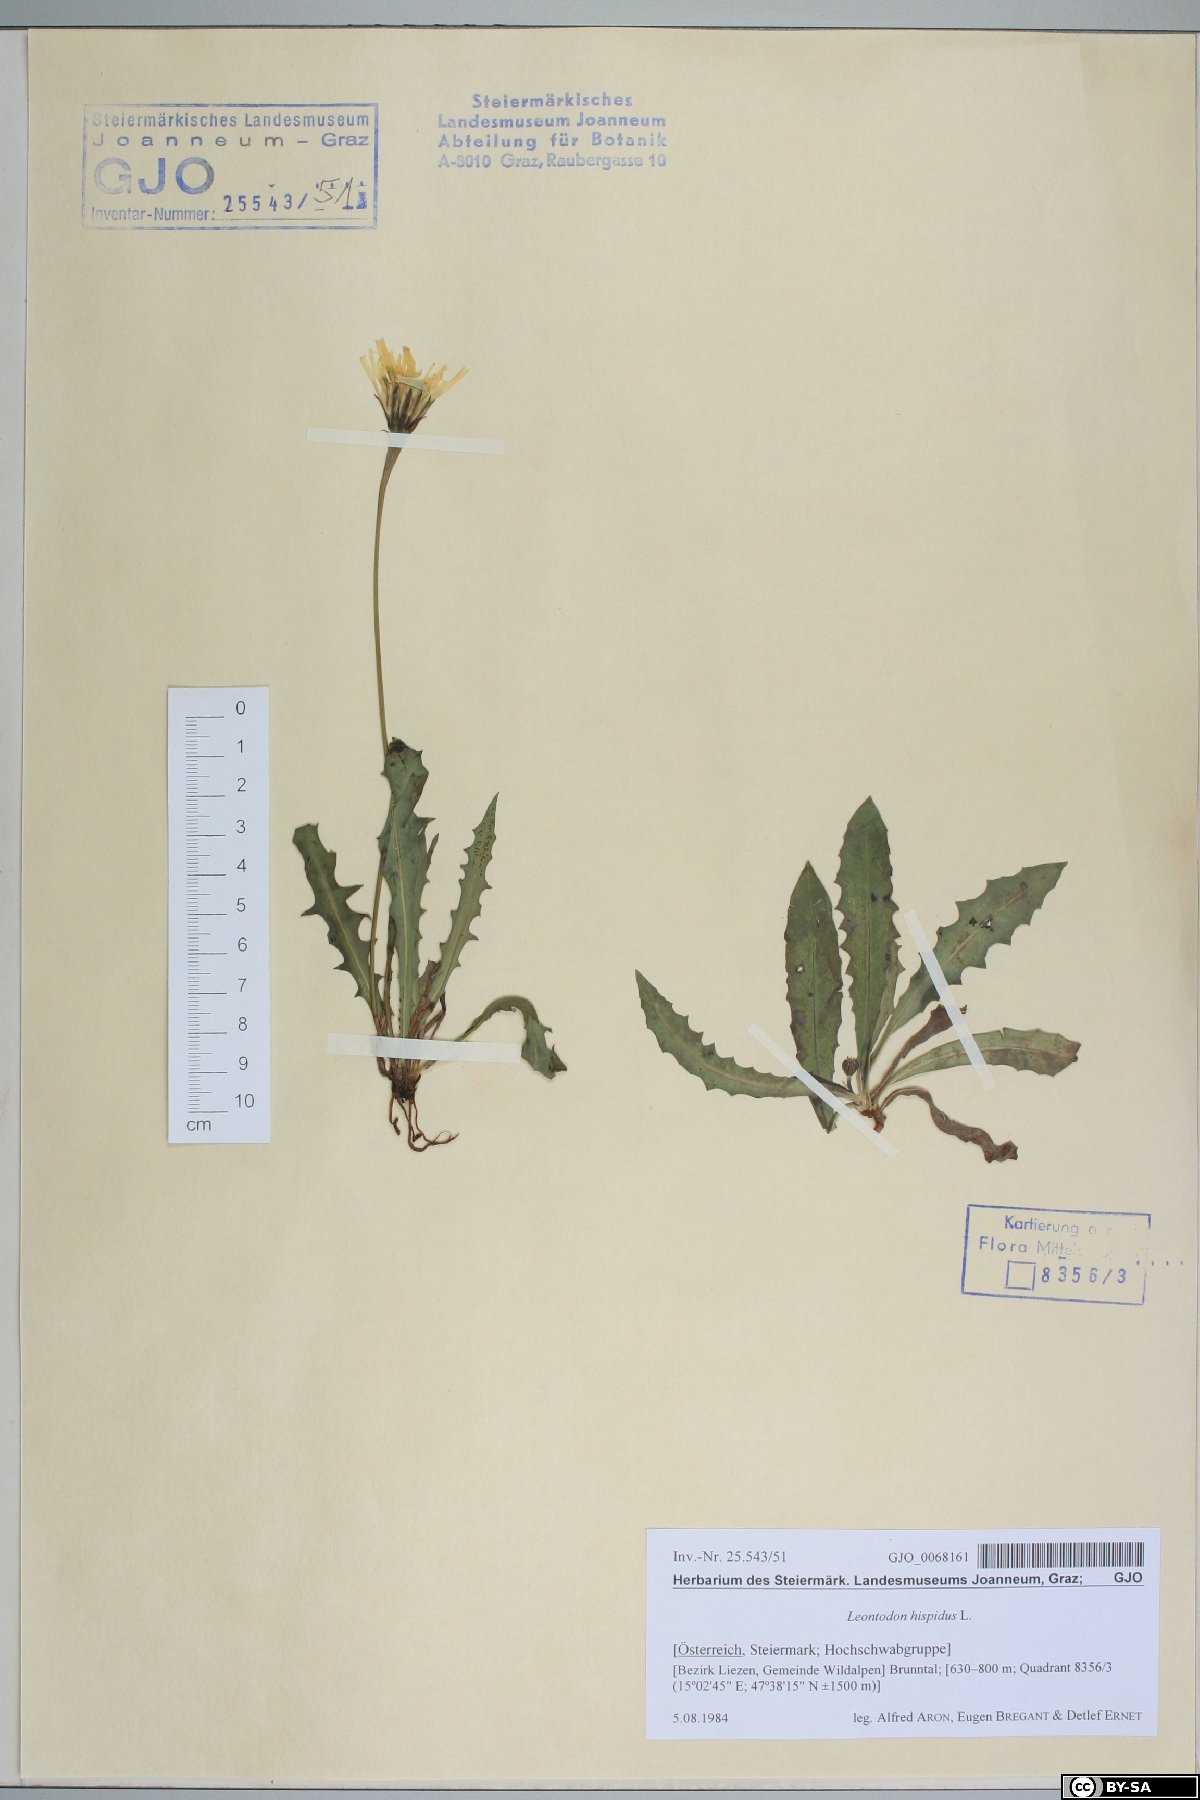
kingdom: Plantae
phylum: Tracheophyta
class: Magnoliopsida
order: Asterales
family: Asteraceae
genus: Leontodon
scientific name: Leontodon hispidus
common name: Rough hawkbit
